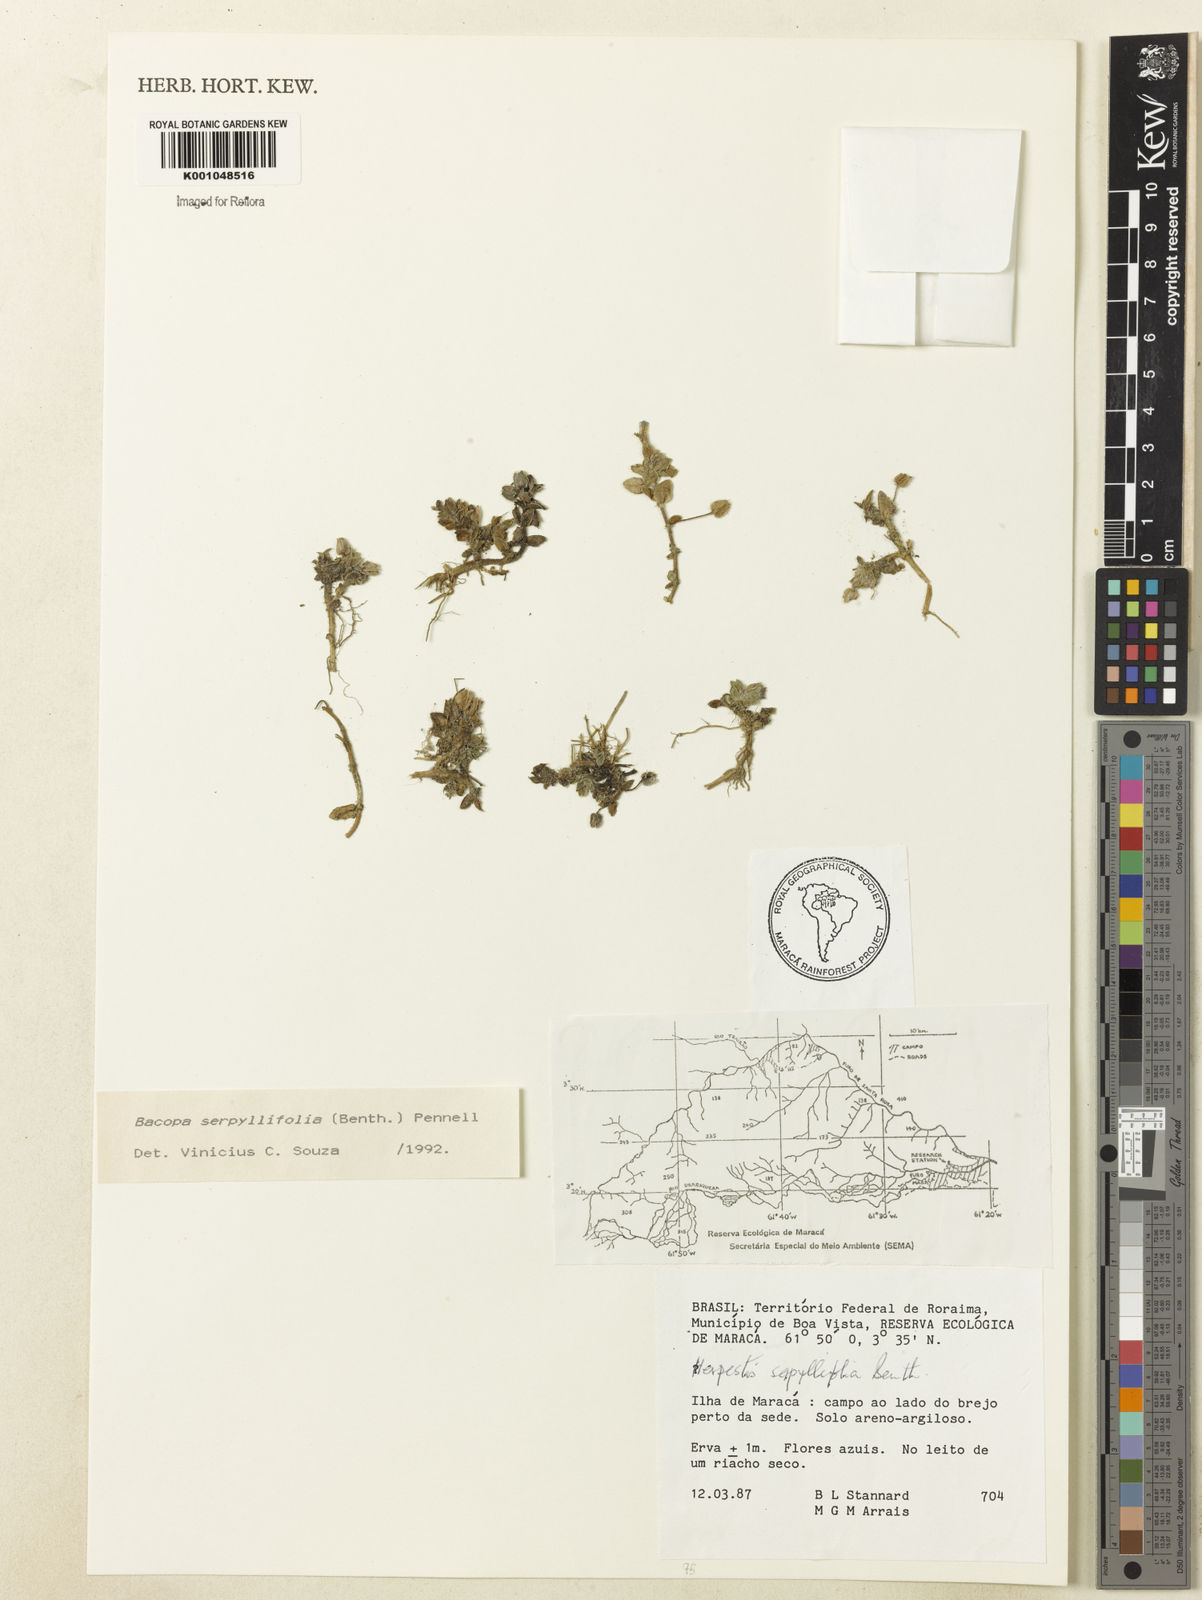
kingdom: Plantae
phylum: Tracheophyta
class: Magnoliopsida
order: Lamiales
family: Plantaginaceae
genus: Bacopa
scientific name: Bacopa serpyllifolia
